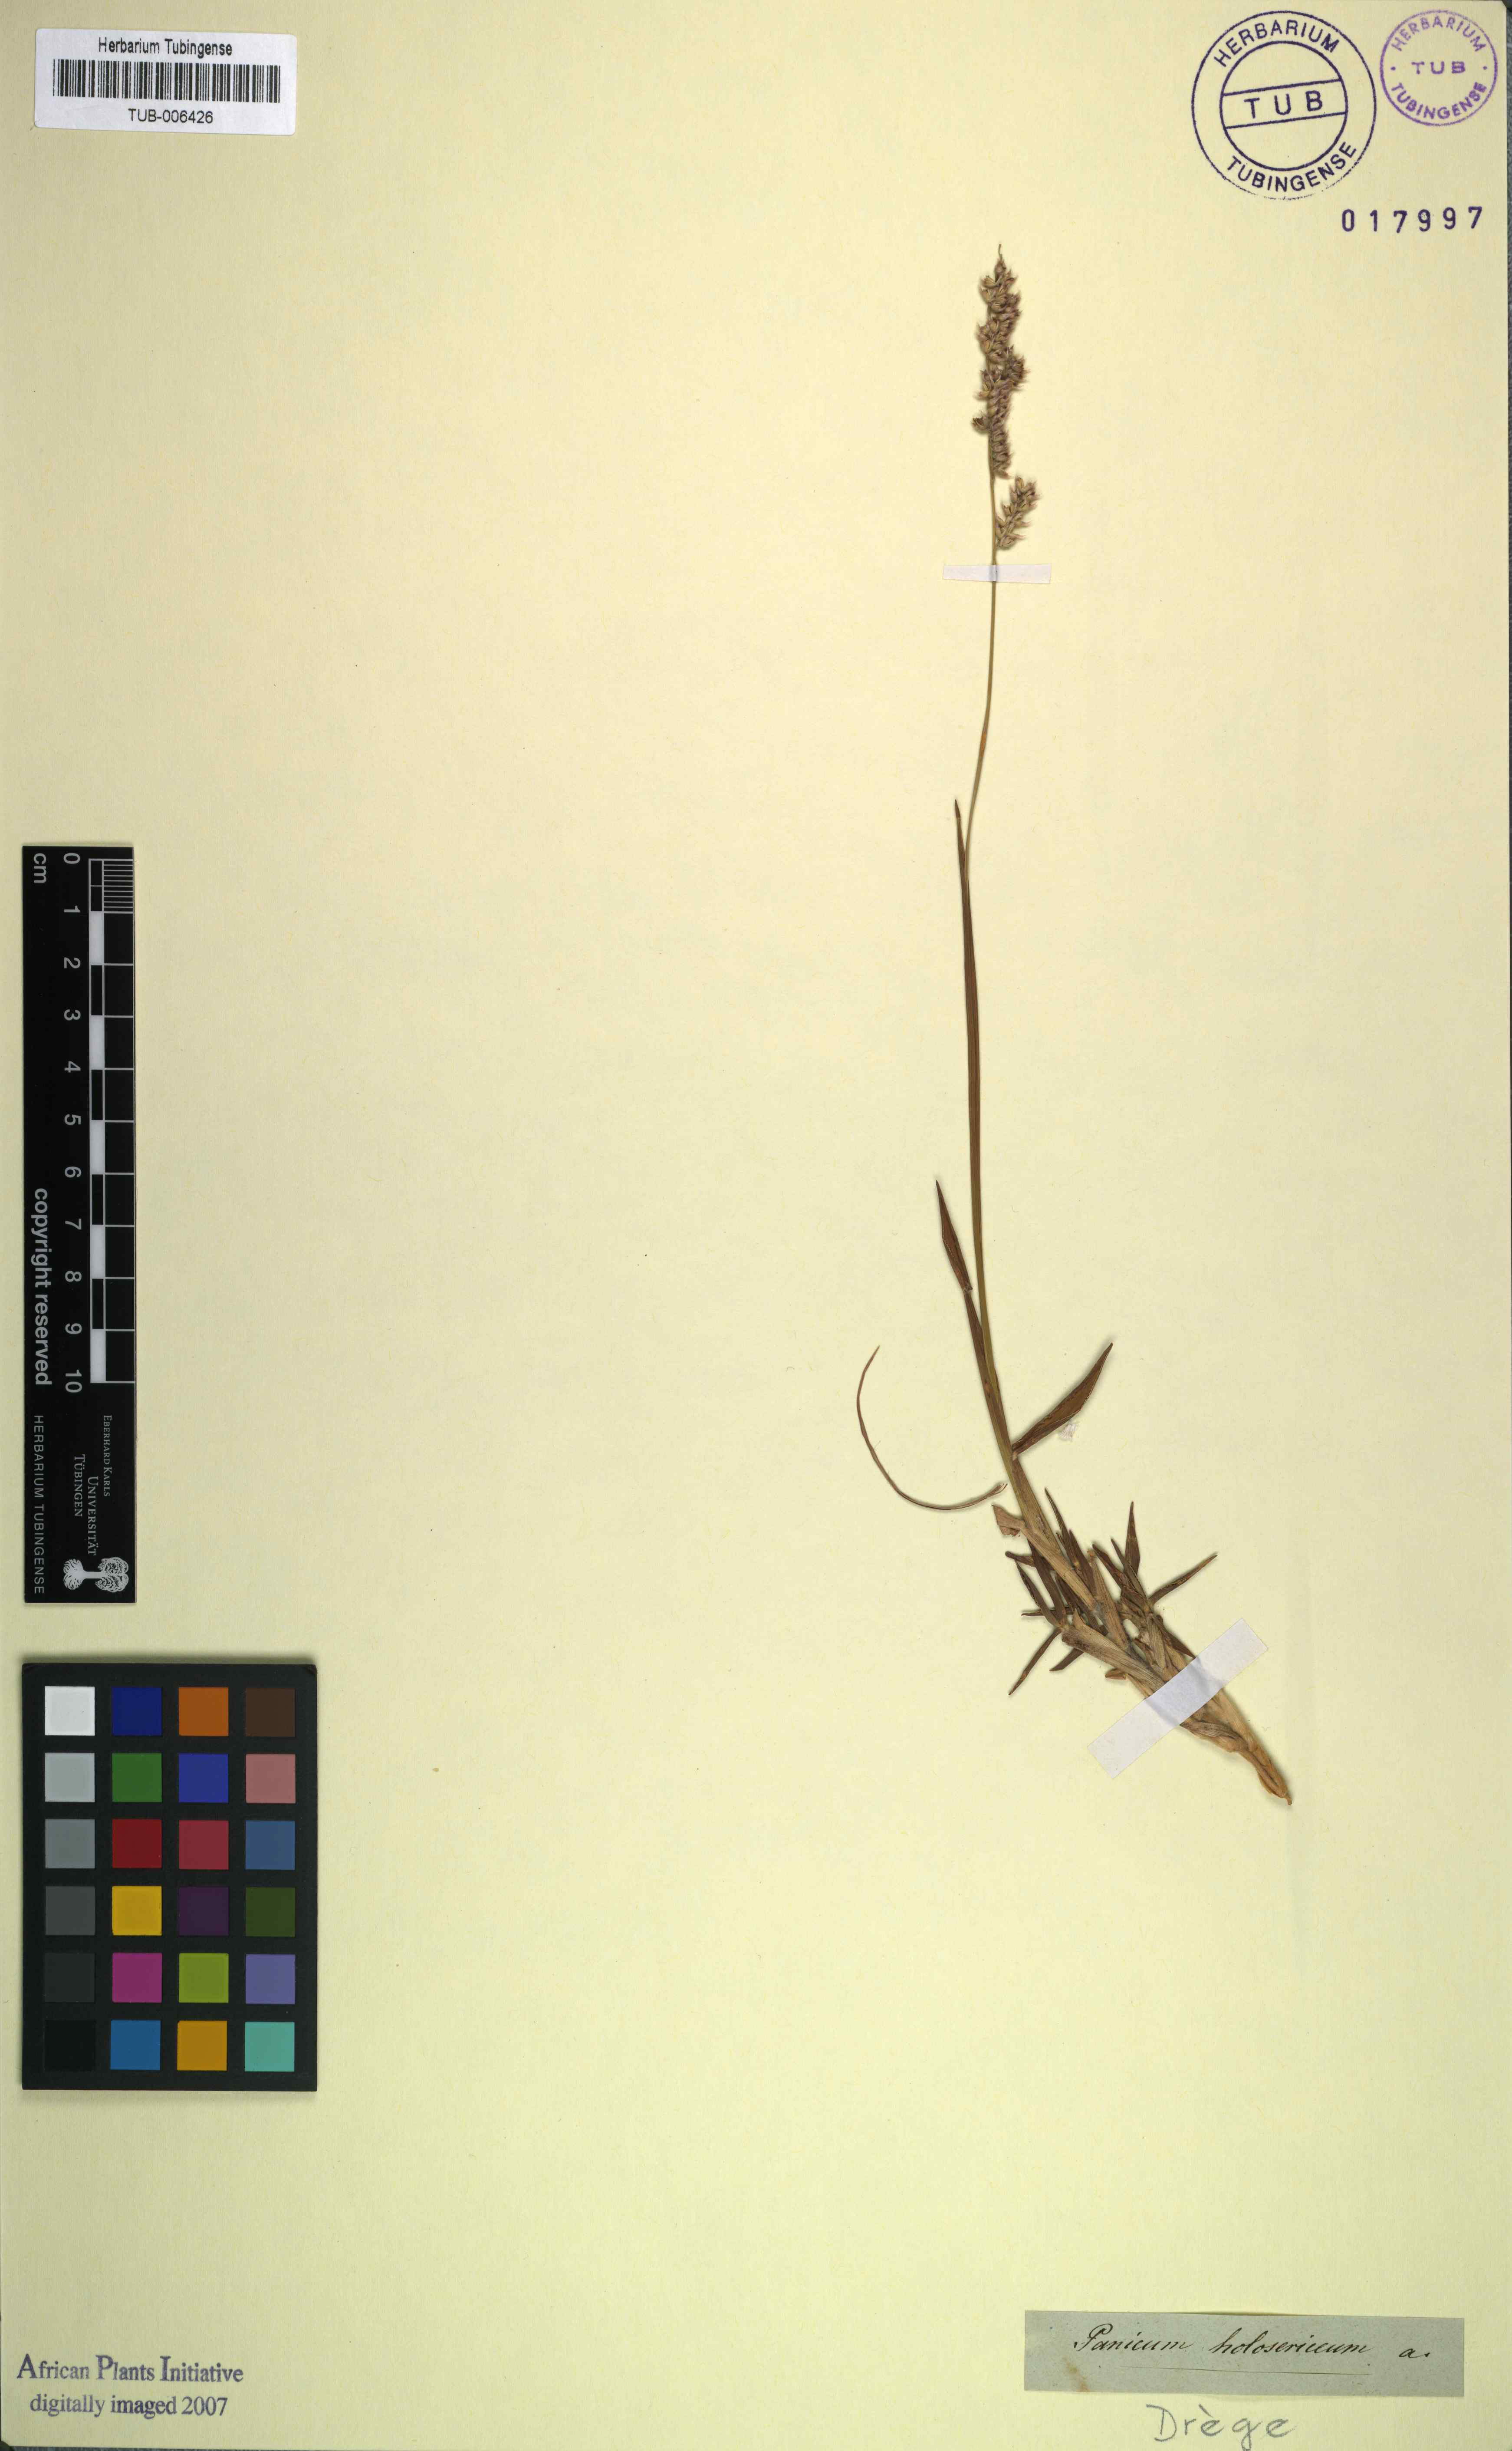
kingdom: Plantae
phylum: Tracheophyta
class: Liliopsida
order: Poales
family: Poaceae
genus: Urochloa
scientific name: Urochloa holosericea
